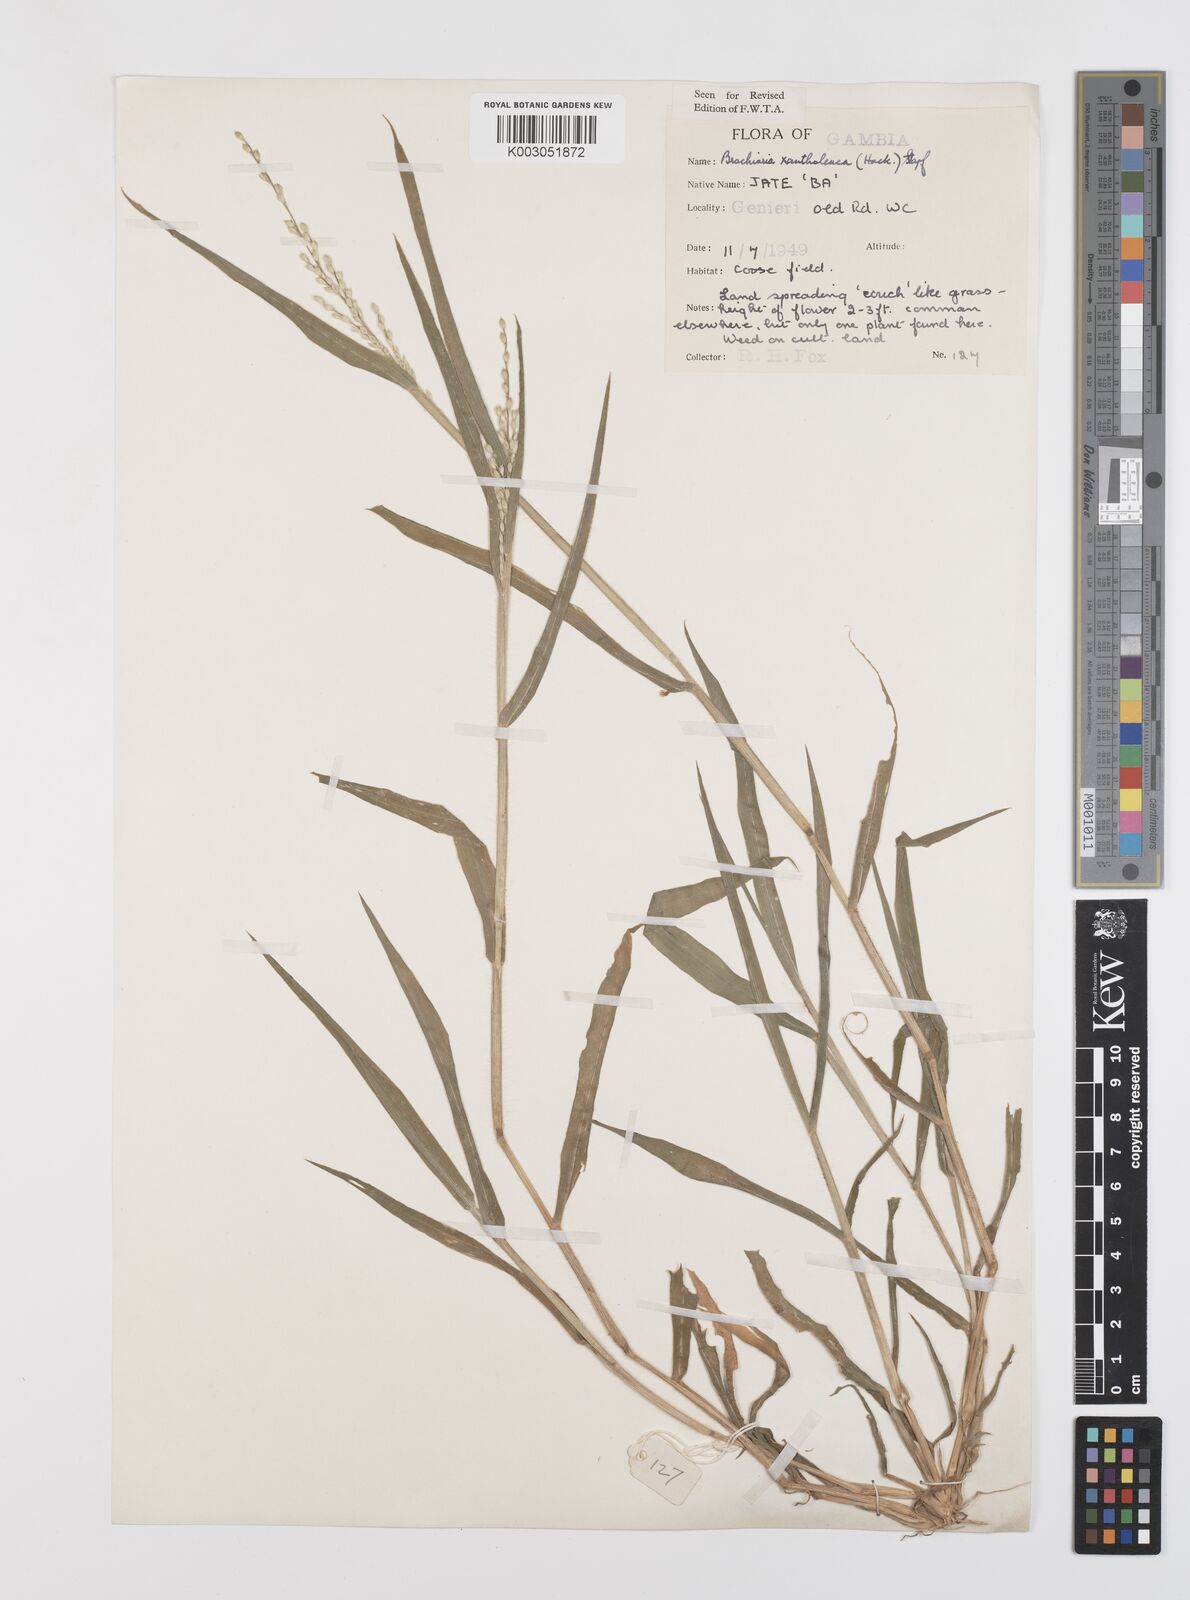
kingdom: Plantae
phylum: Tracheophyta
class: Liliopsida
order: Poales
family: Poaceae
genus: Urochloa
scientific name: Urochloa xantholeuca
